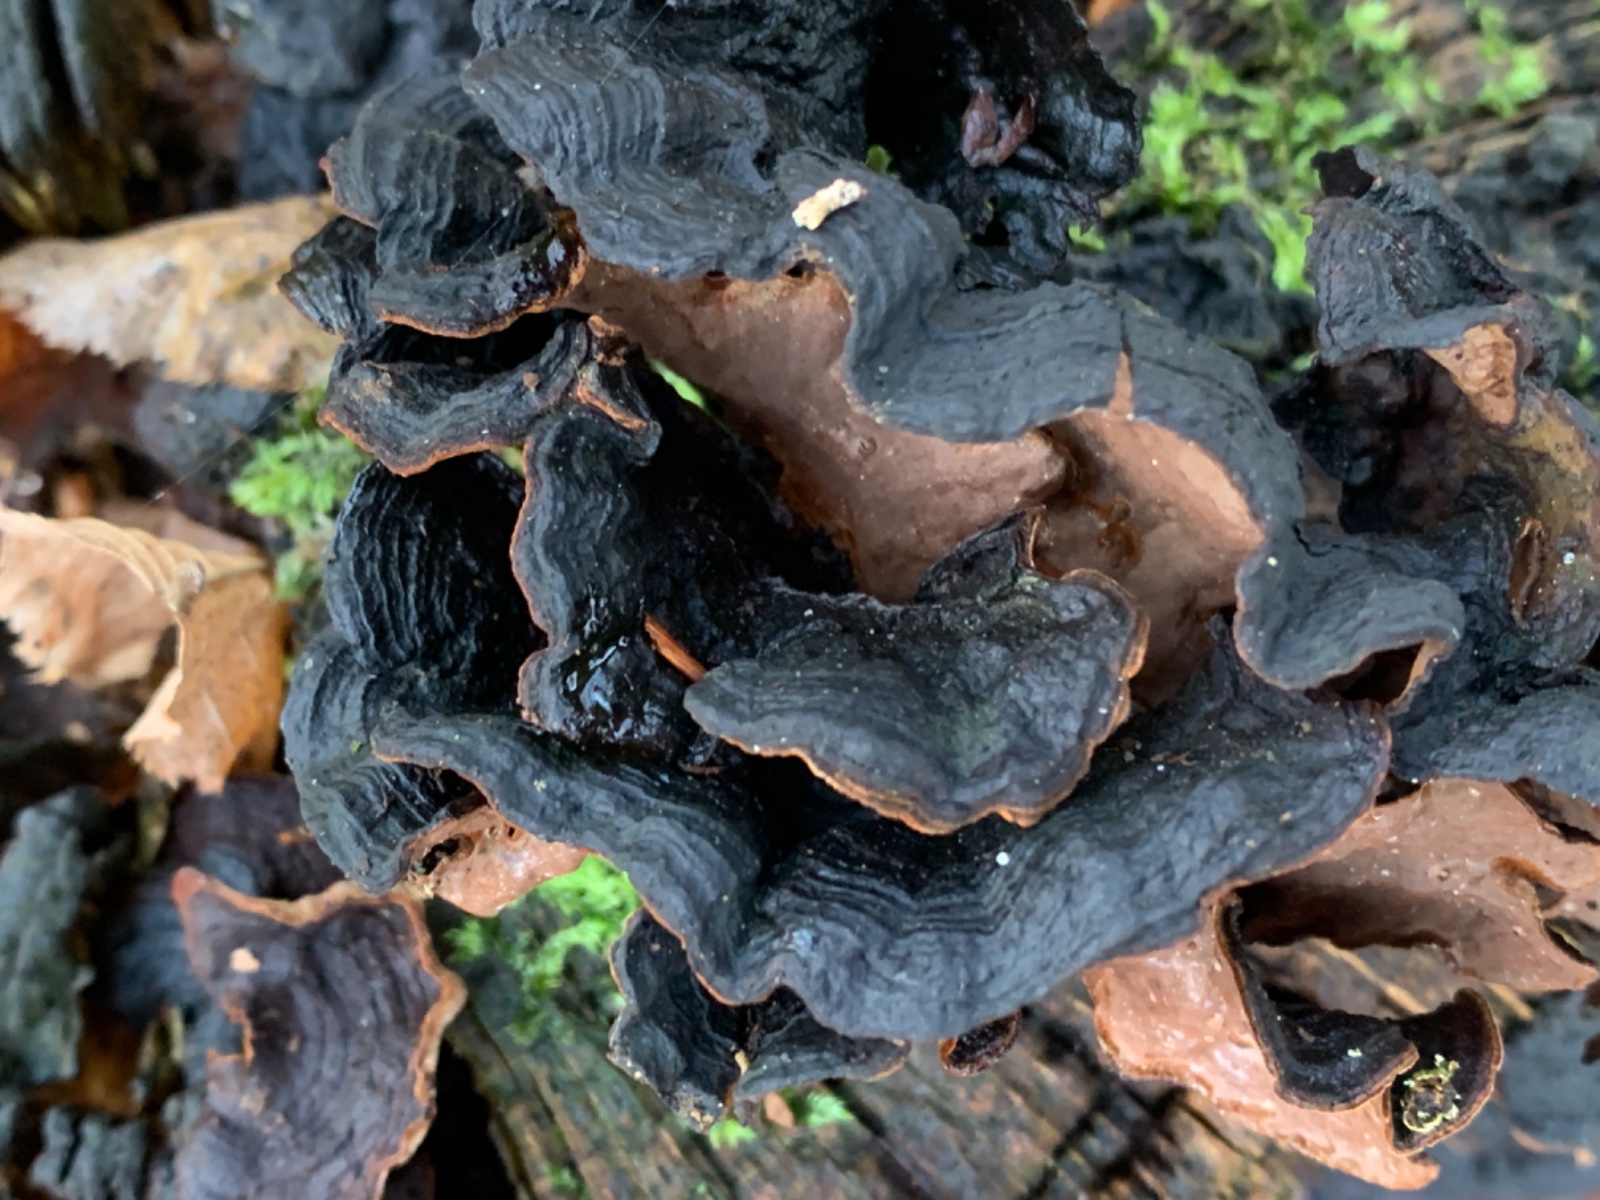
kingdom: Fungi
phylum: Basidiomycota
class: Agaricomycetes
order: Hymenochaetales
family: Hymenochaetaceae
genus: Hymenochaete
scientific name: Hymenochaete rubiginosa
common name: stiv ruslædersvamp
